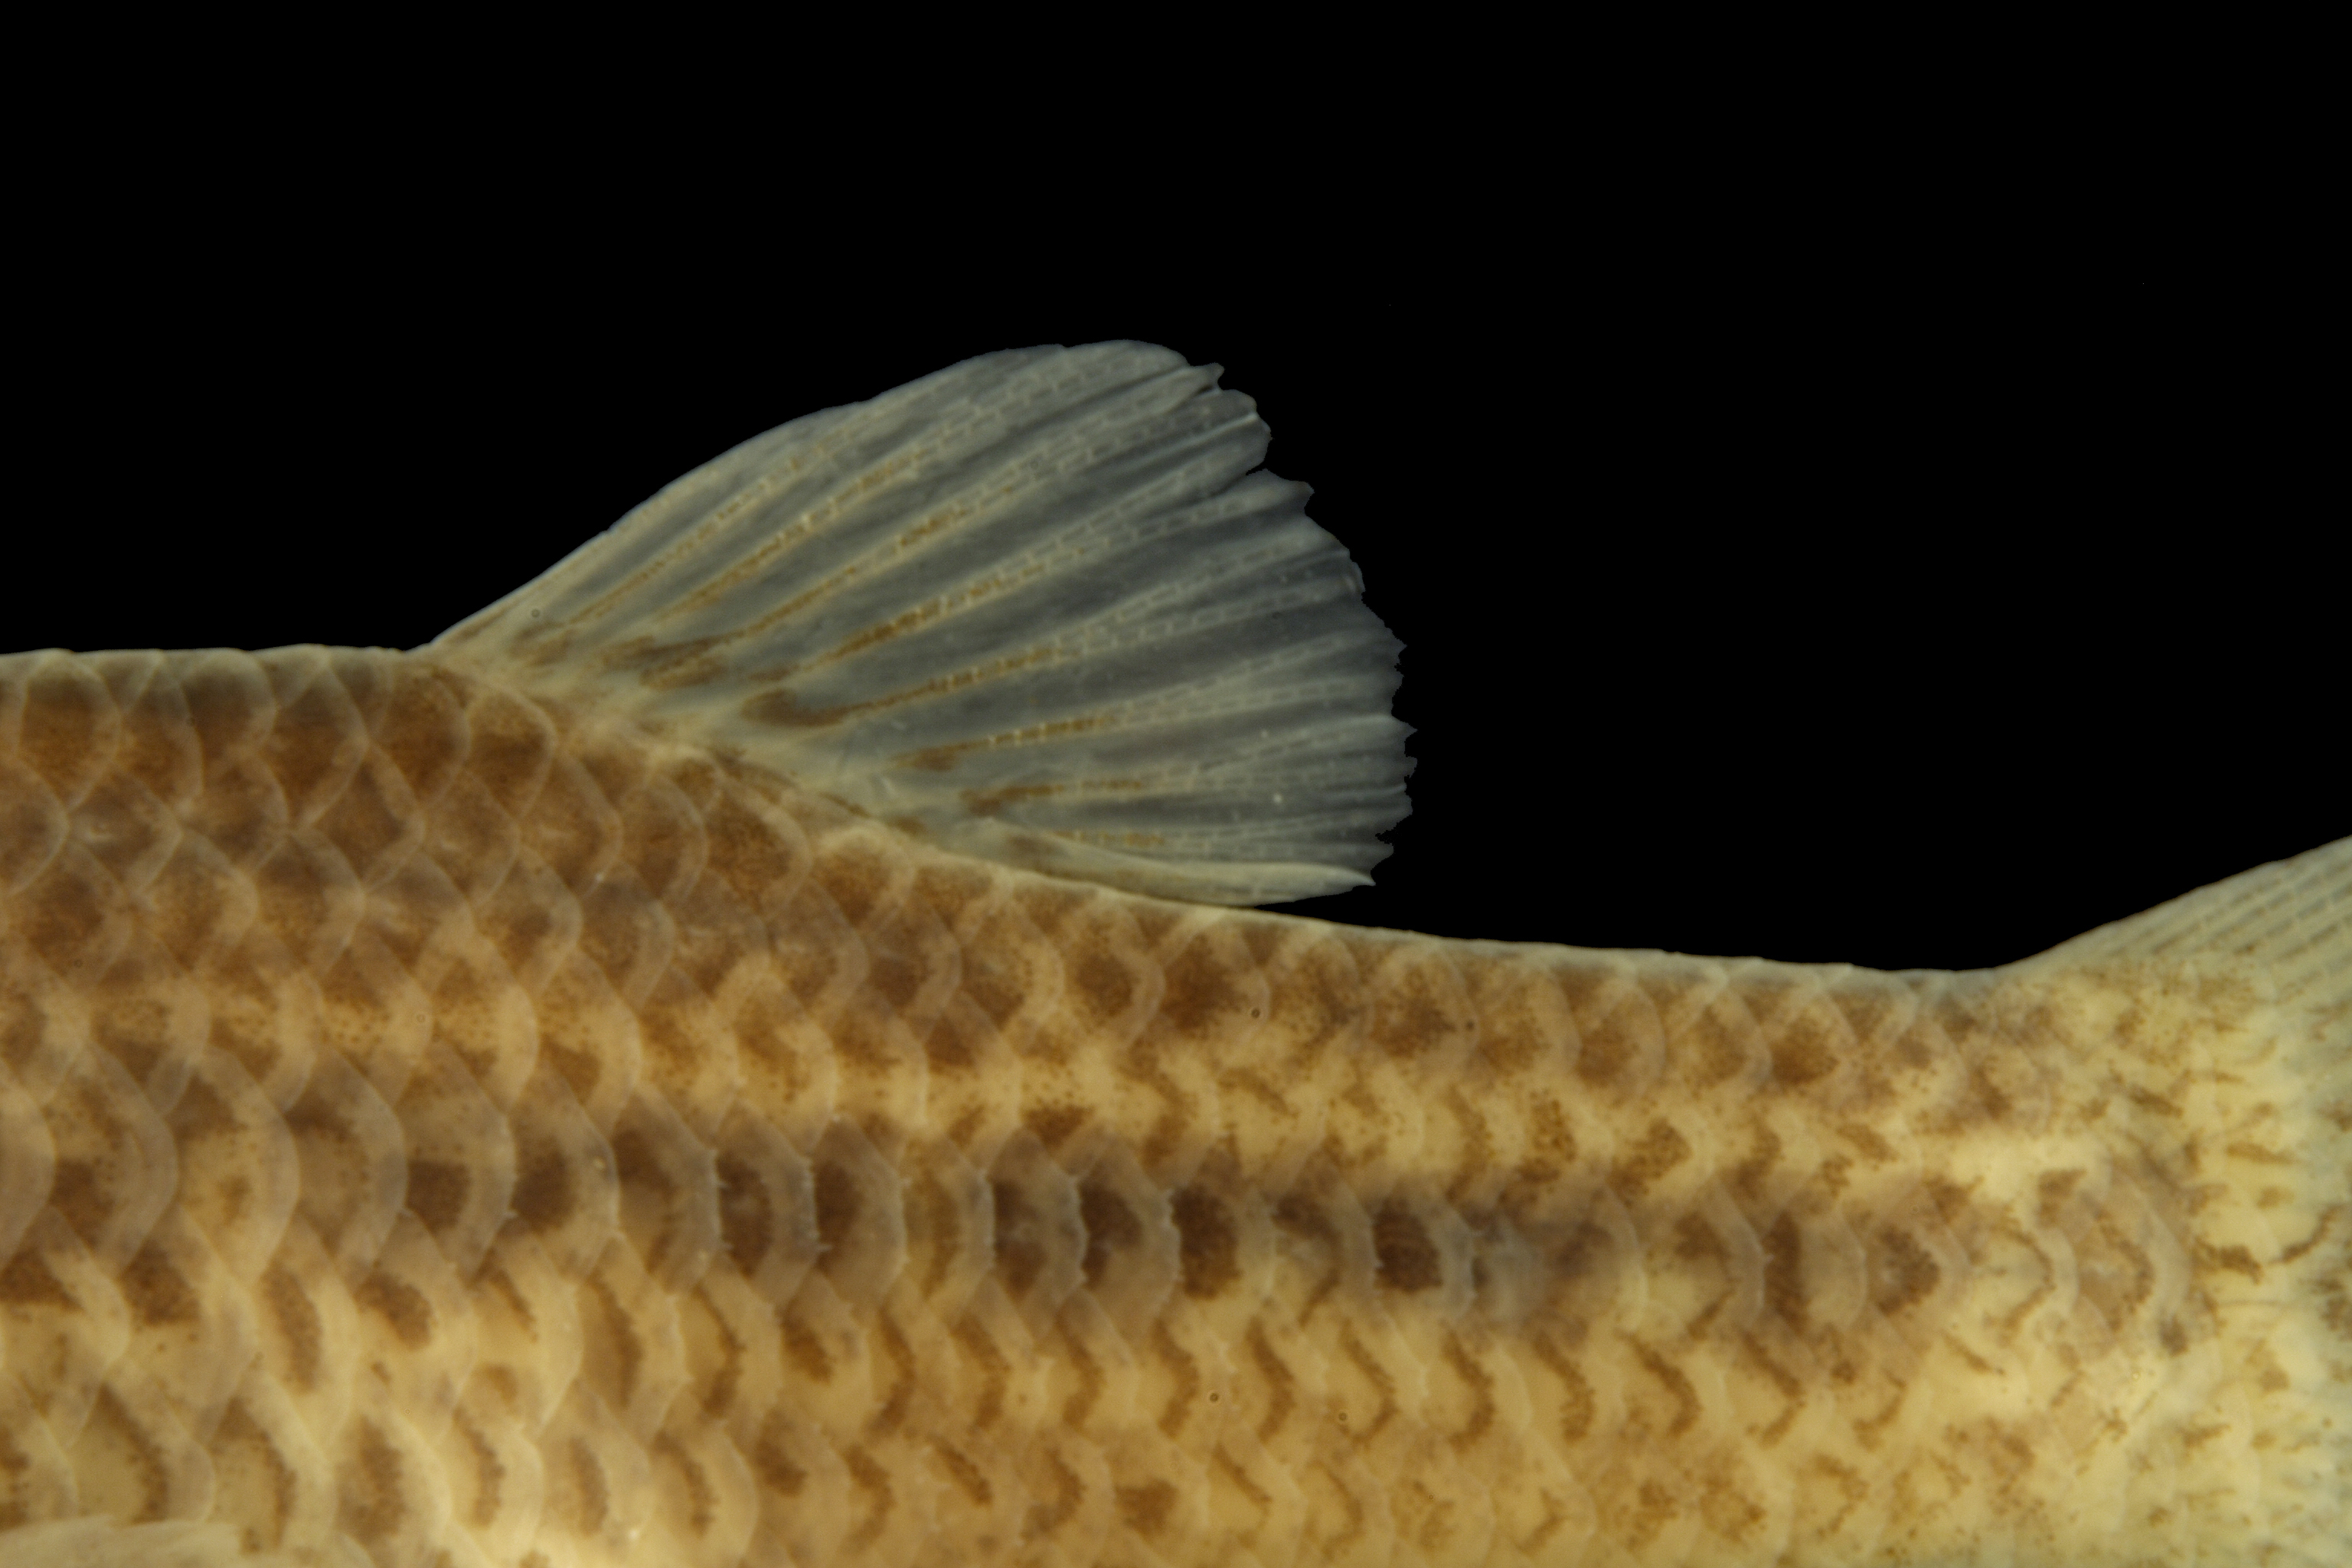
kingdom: Animalia
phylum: Chordata
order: Cyprinodontiformes
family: Cyprinodontidae
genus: Cyprinodon
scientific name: Cyprinodon elegans
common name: Comanche springs pupfish
